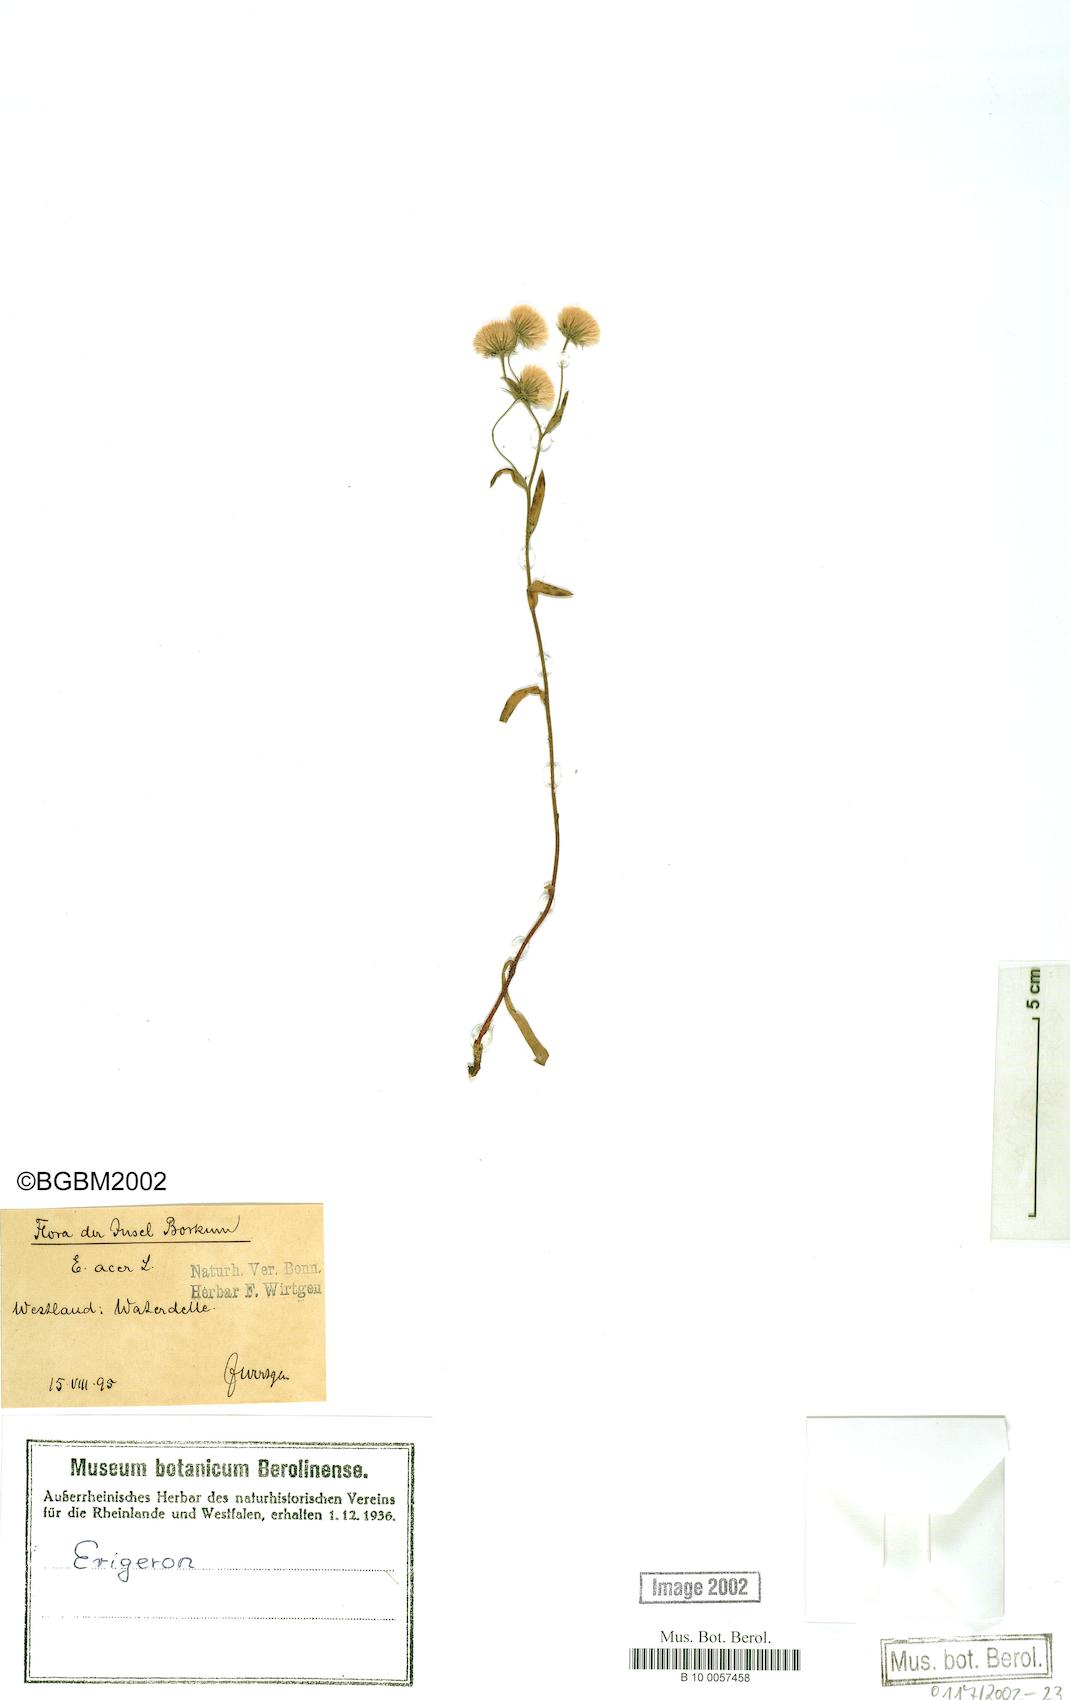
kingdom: Plantae
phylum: Tracheophyta
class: Magnoliopsida
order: Asterales
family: Asteraceae
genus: Erigeron
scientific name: Erigeron acris
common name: Blue fleabane
